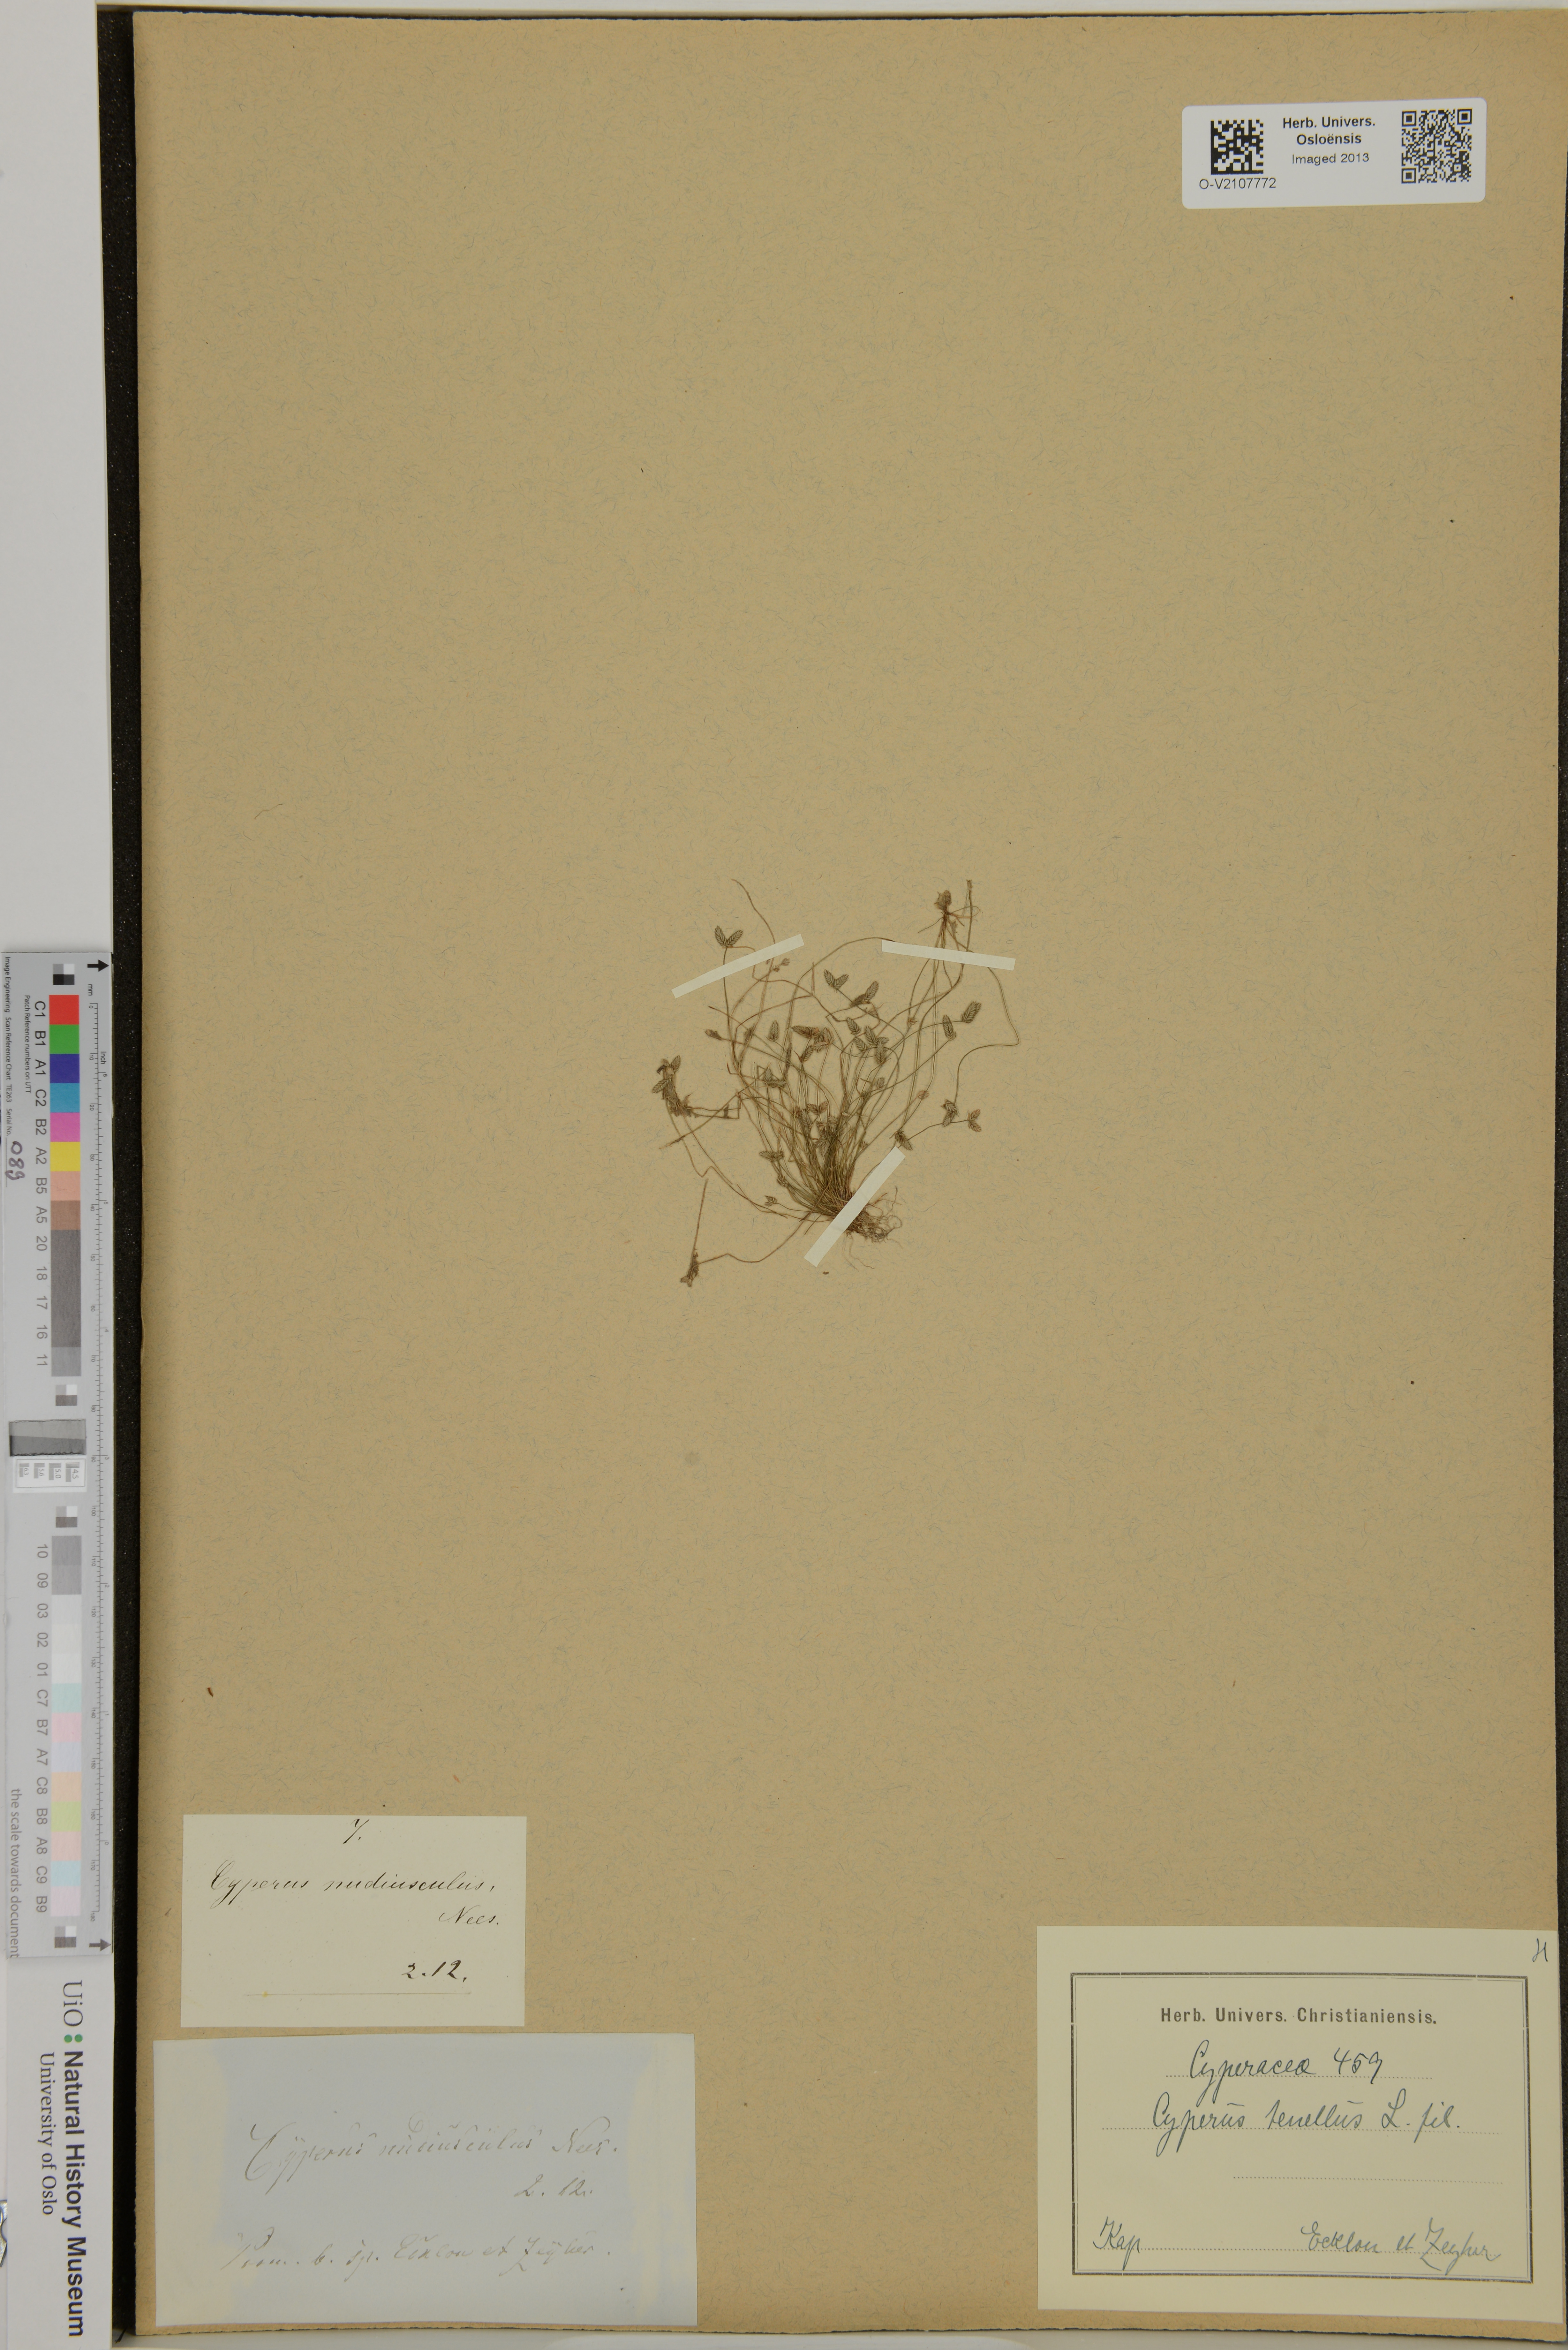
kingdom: Plantae
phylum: Tracheophyta
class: Liliopsida
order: Poales
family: Cyperaceae
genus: Cyperus
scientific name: Cyperus
